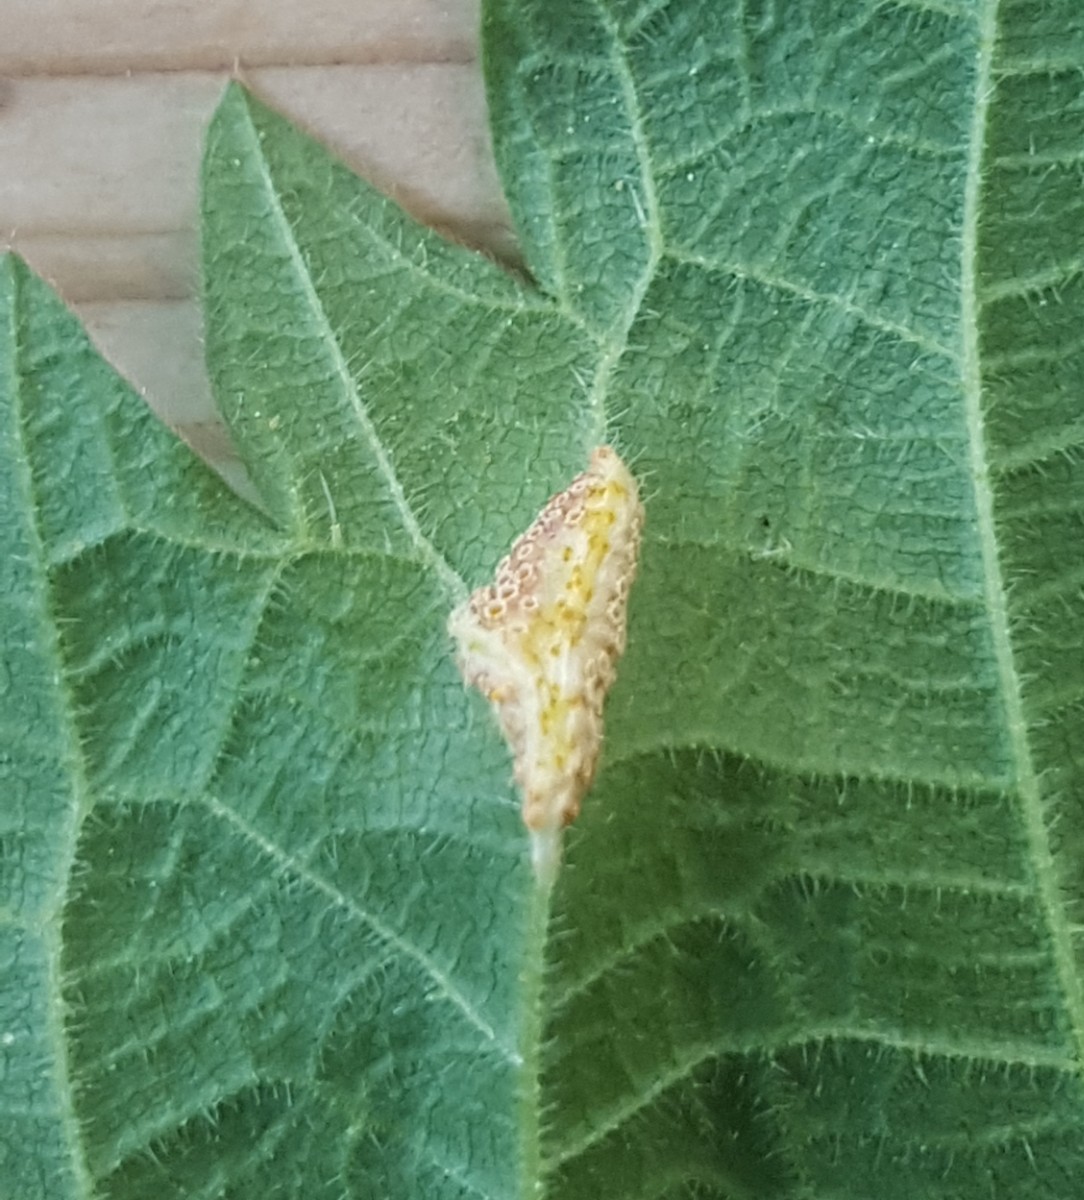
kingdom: Fungi
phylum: Basidiomycota
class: Pucciniomycetes
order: Pucciniales
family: Pucciniaceae
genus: Puccinia
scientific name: Puccinia urticata
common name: nældegalle-tvecellerust
